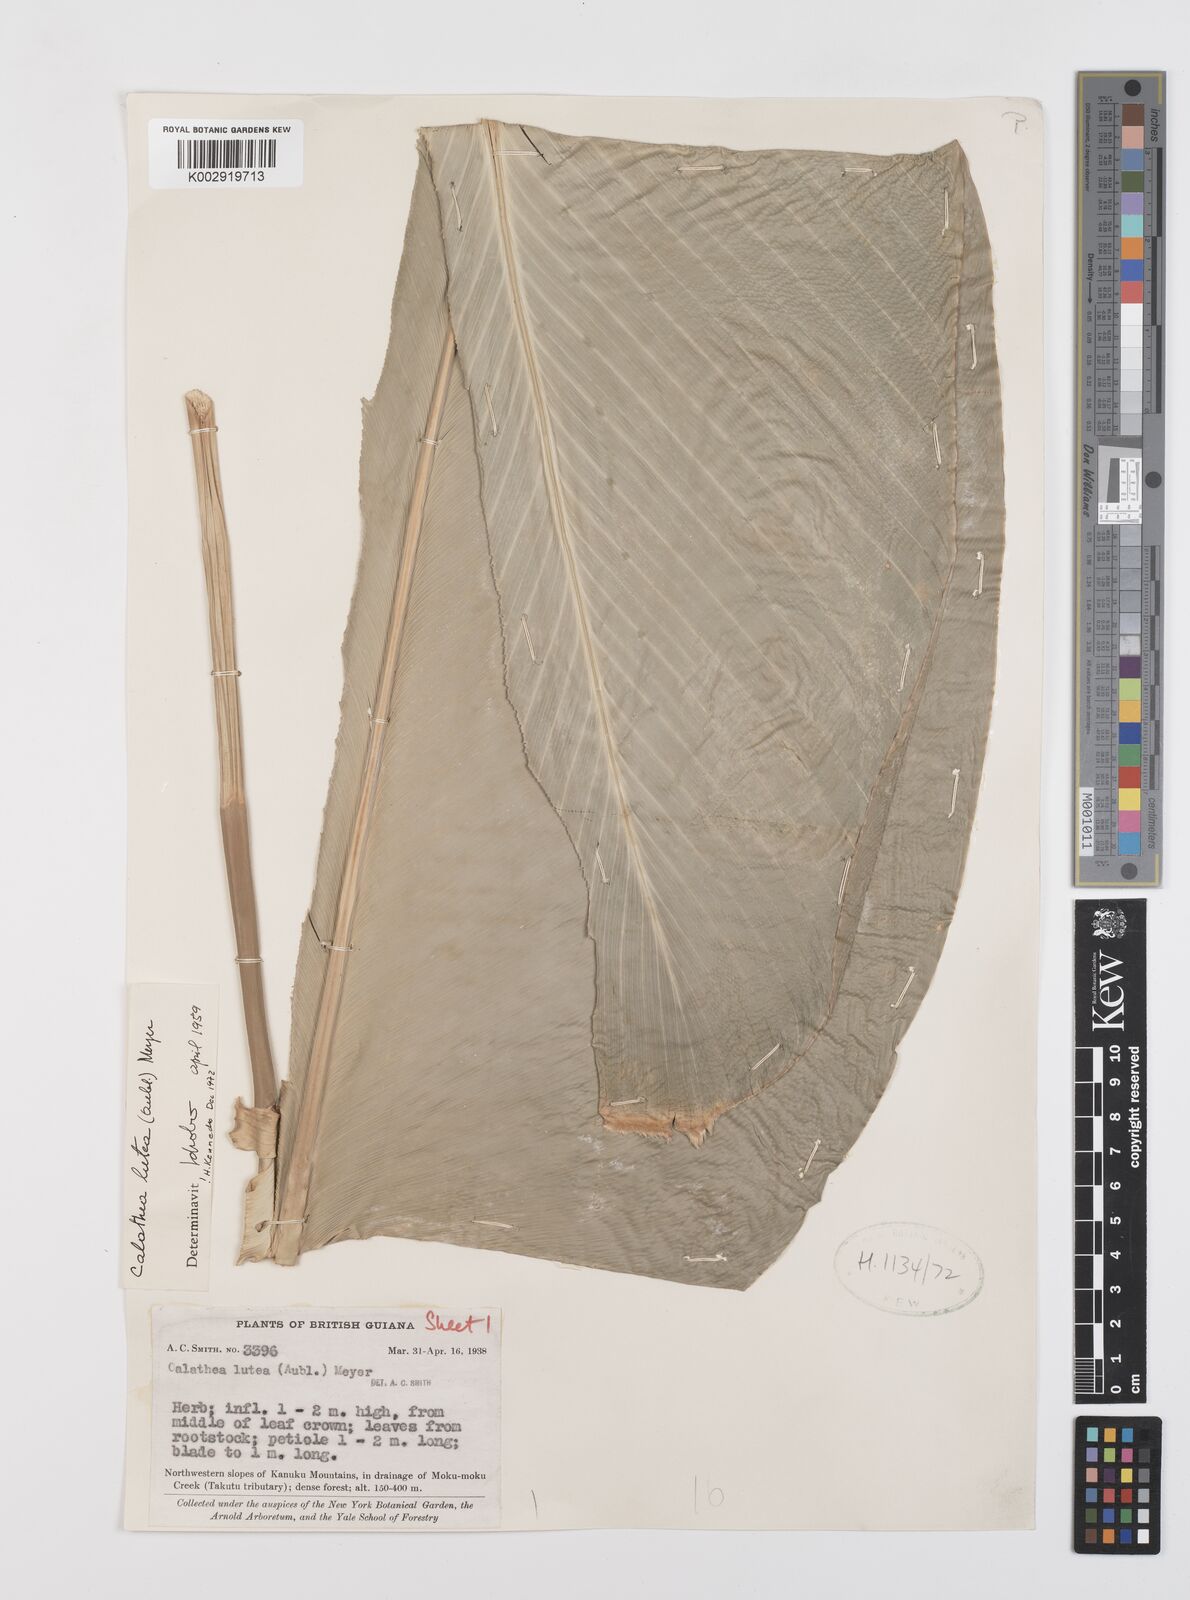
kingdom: Plantae
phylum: Tracheophyta
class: Liliopsida
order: Zingiberales
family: Marantaceae
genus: Calathea
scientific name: Calathea lutea
